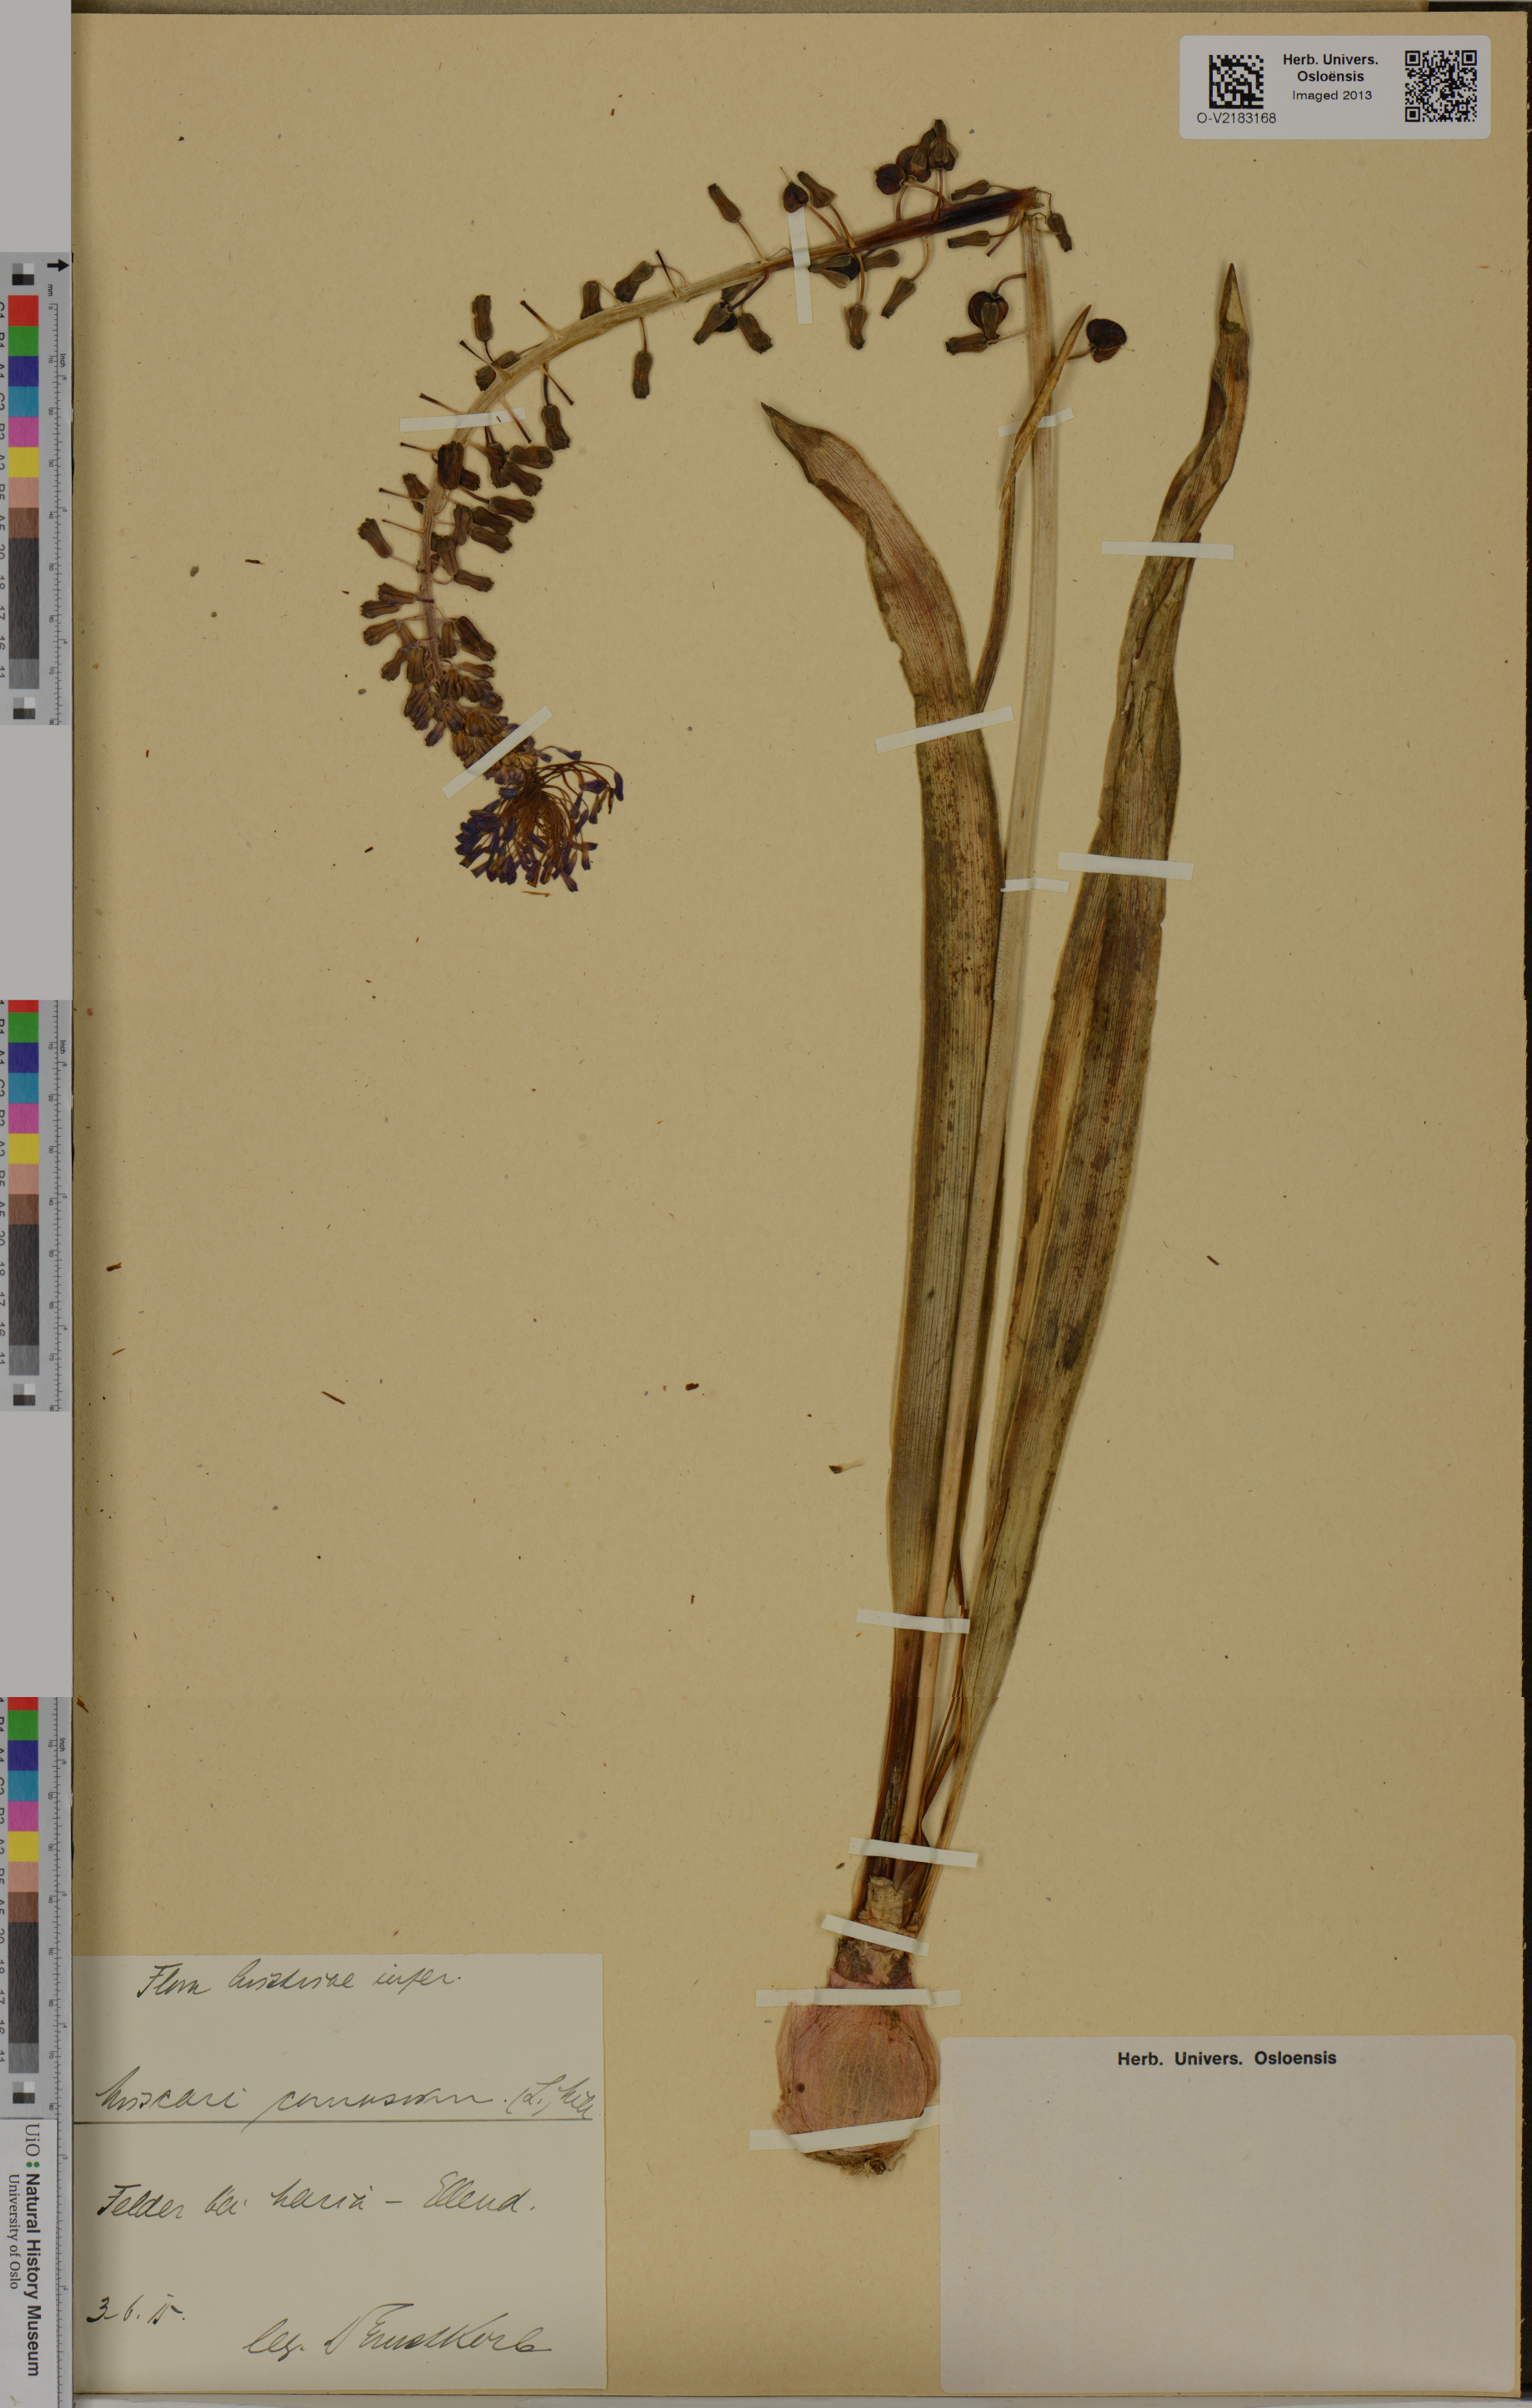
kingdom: Plantae
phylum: Tracheophyta
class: Liliopsida
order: Asparagales
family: Asparagaceae
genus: Muscari
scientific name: Muscari comosum
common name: Tassel hyacinth
